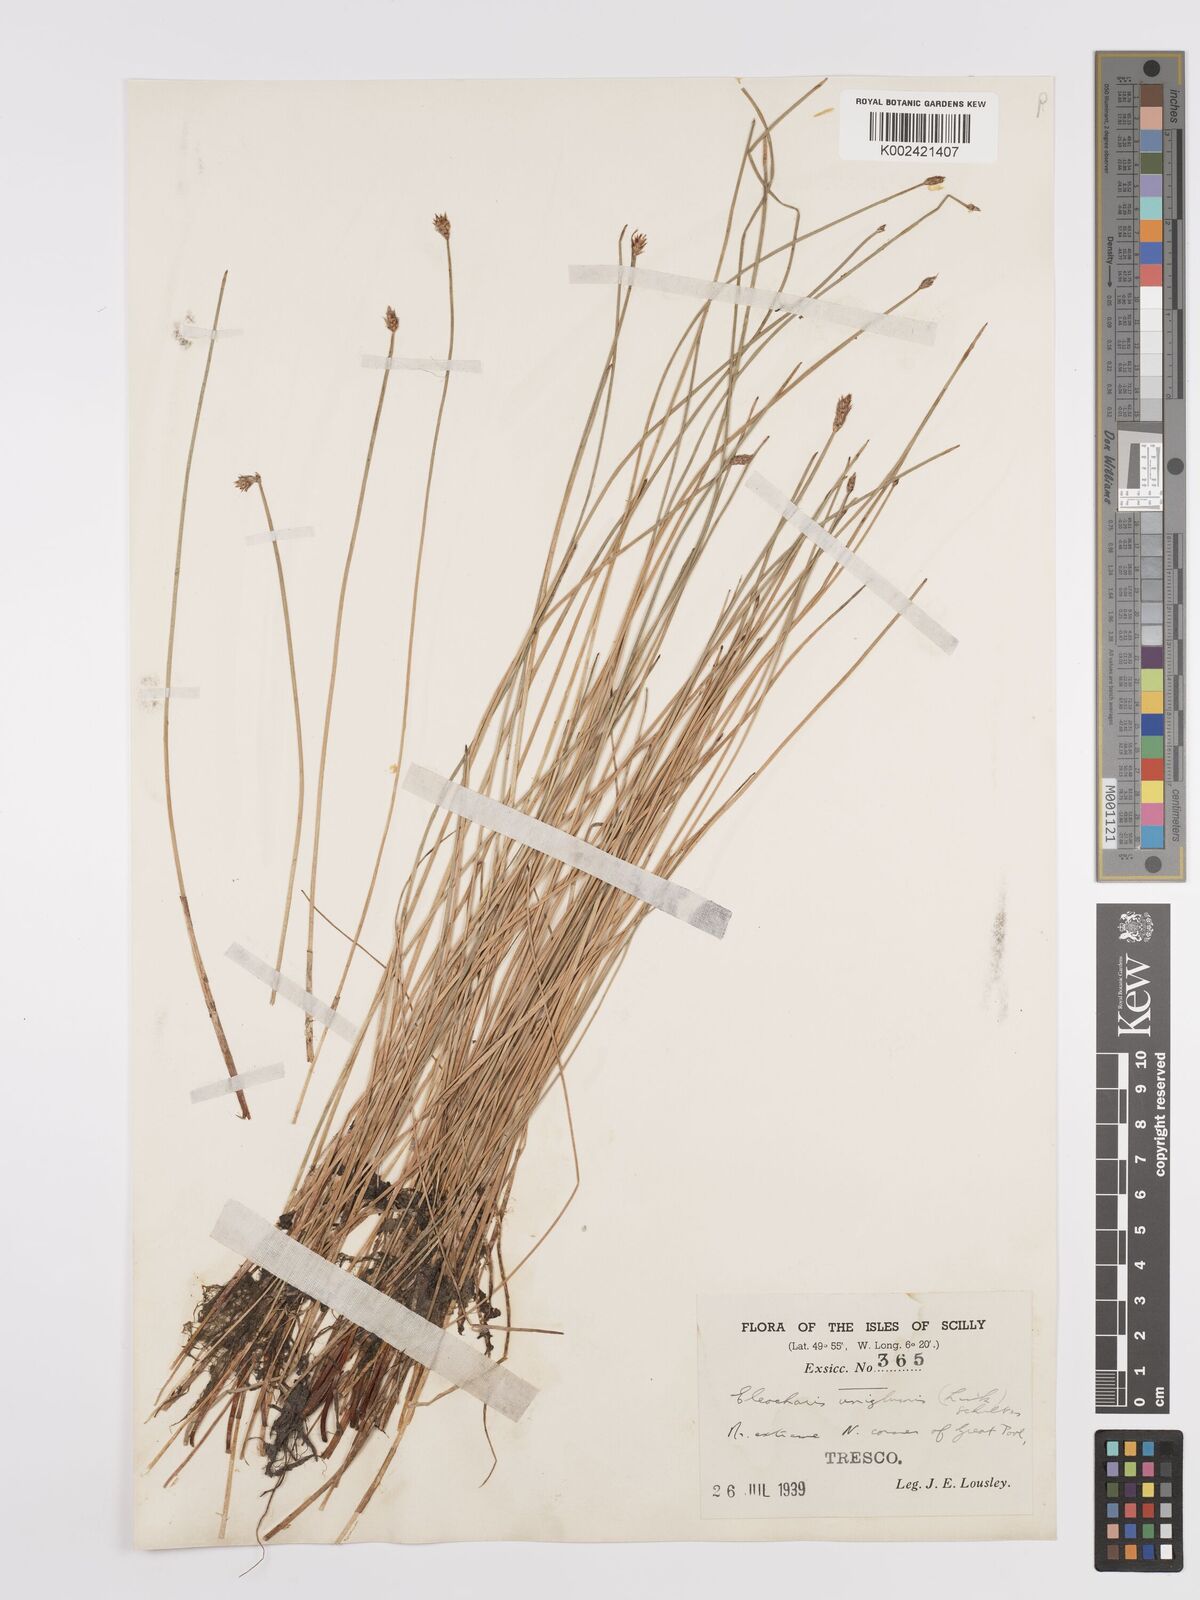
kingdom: Plantae
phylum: Tracheophyta
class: Liliopsida
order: Poales
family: Cyperaceae
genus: Eleocharis
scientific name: Eleocharis uniglumis
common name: Slender spike-rush
